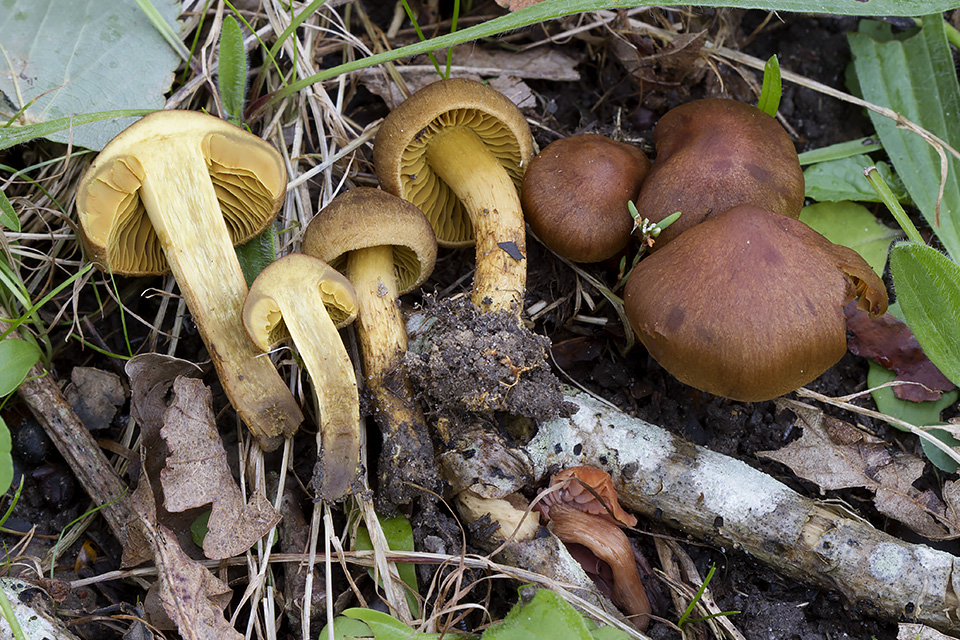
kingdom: Fungi
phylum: Basidiomycota
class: Agaricomycetes
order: Agaricales
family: Cortinariaceae
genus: Cortinarius
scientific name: Cortinarius
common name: gulbladet slørhat
